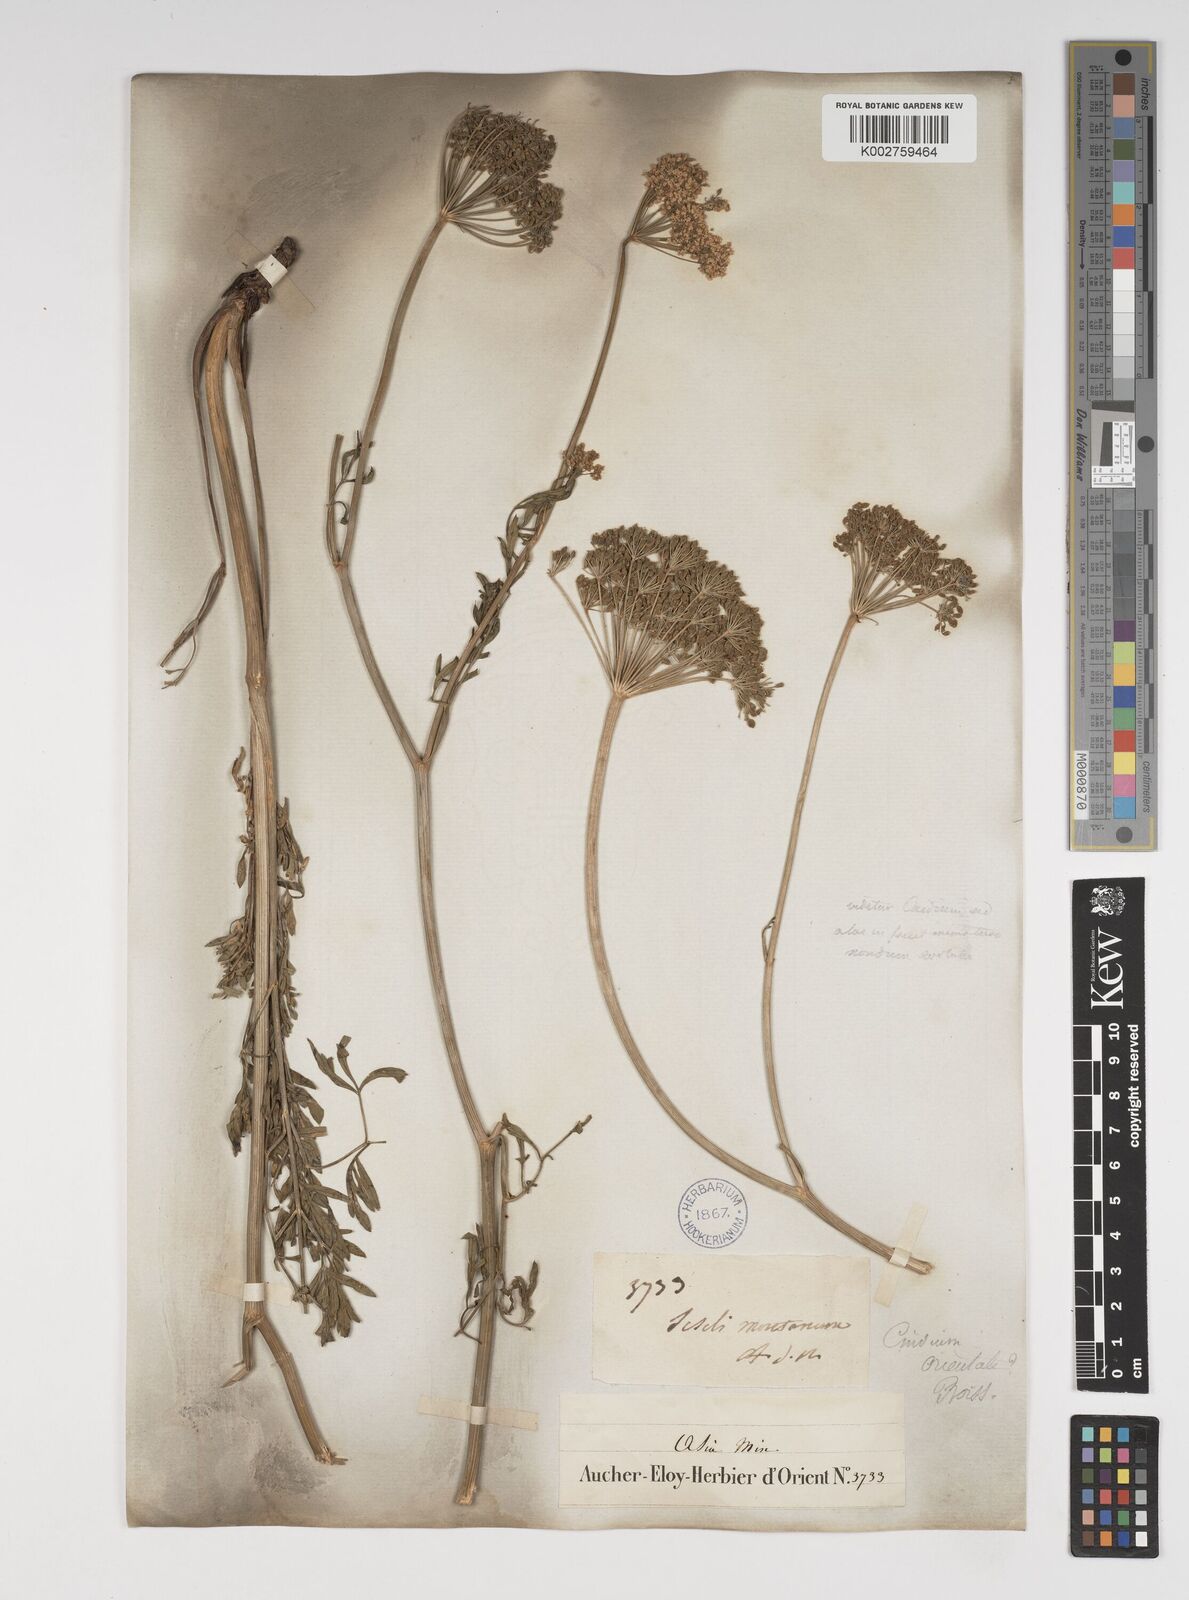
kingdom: Plantae
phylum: Tracheophyta
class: Magnoliopsida
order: Apiales
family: Apiaceae
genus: Katapsuxis
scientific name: Katapsuxis silaifolia
